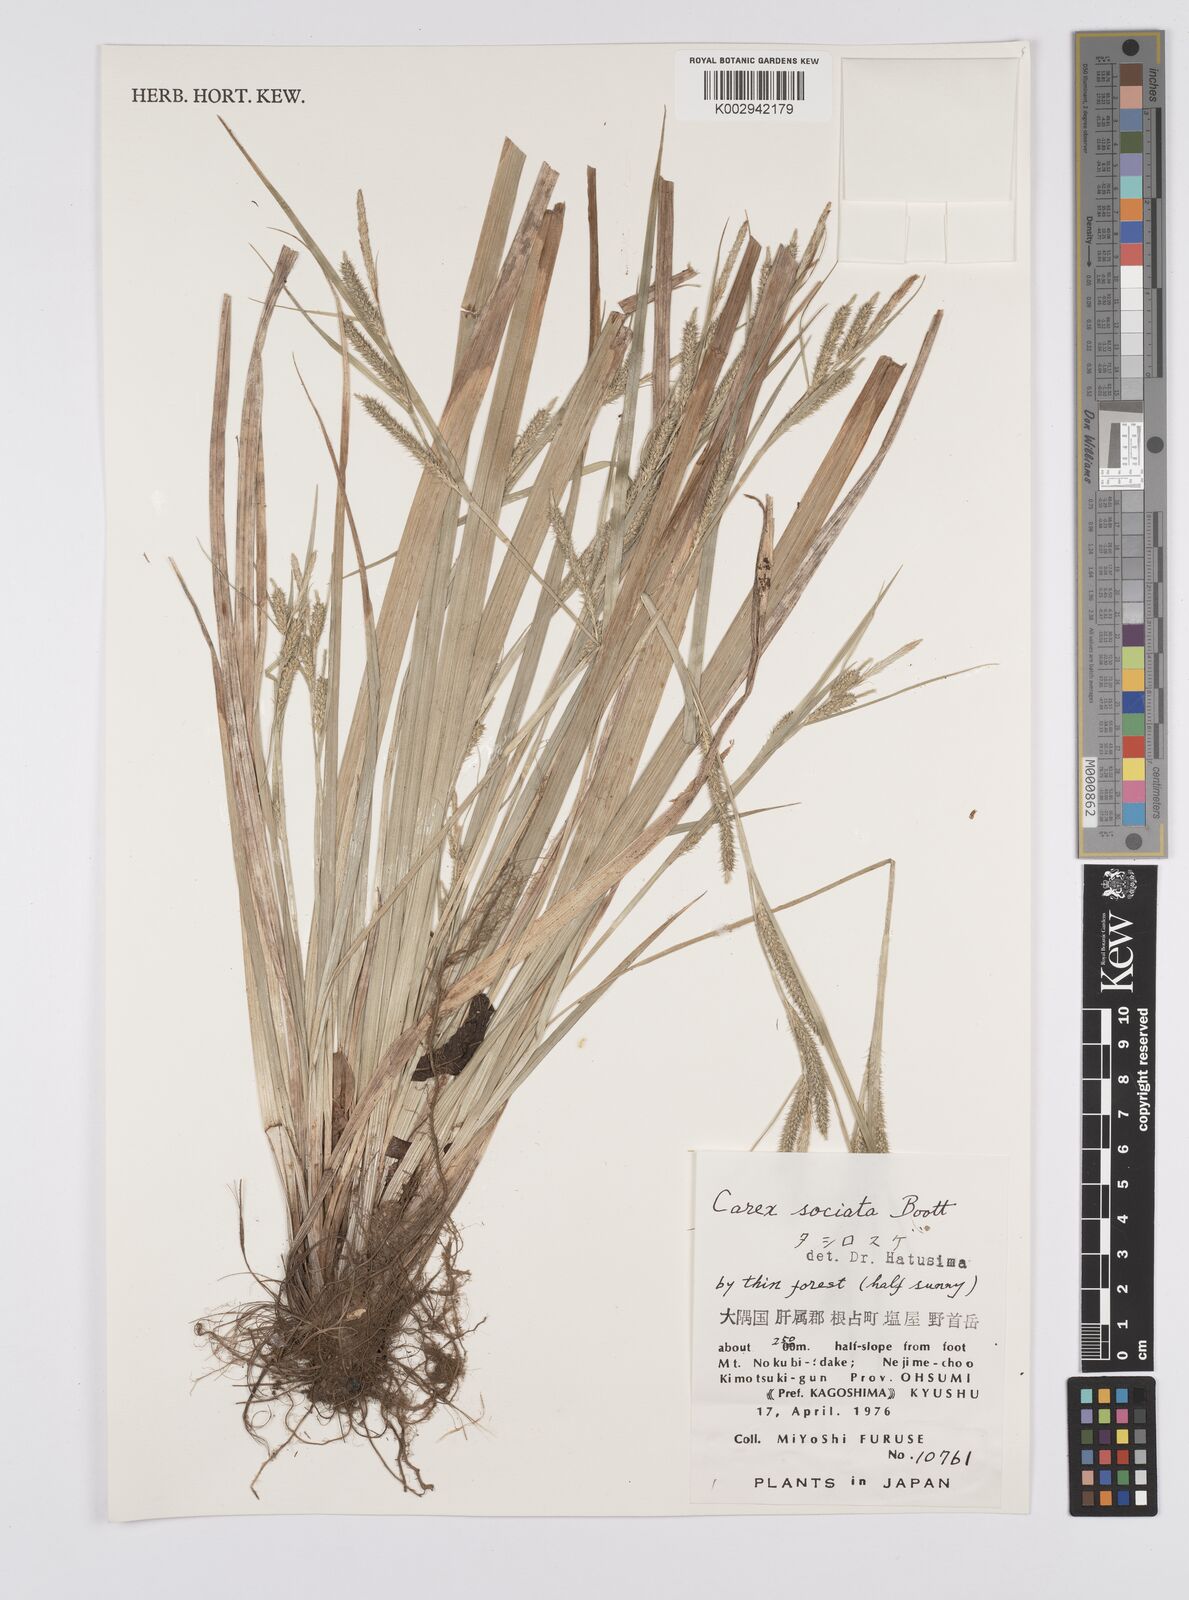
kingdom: Plantae
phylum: Tracheophyta
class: Liliopsida
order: Poales
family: Cyperaceae
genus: Carex
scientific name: Carex chinensis
